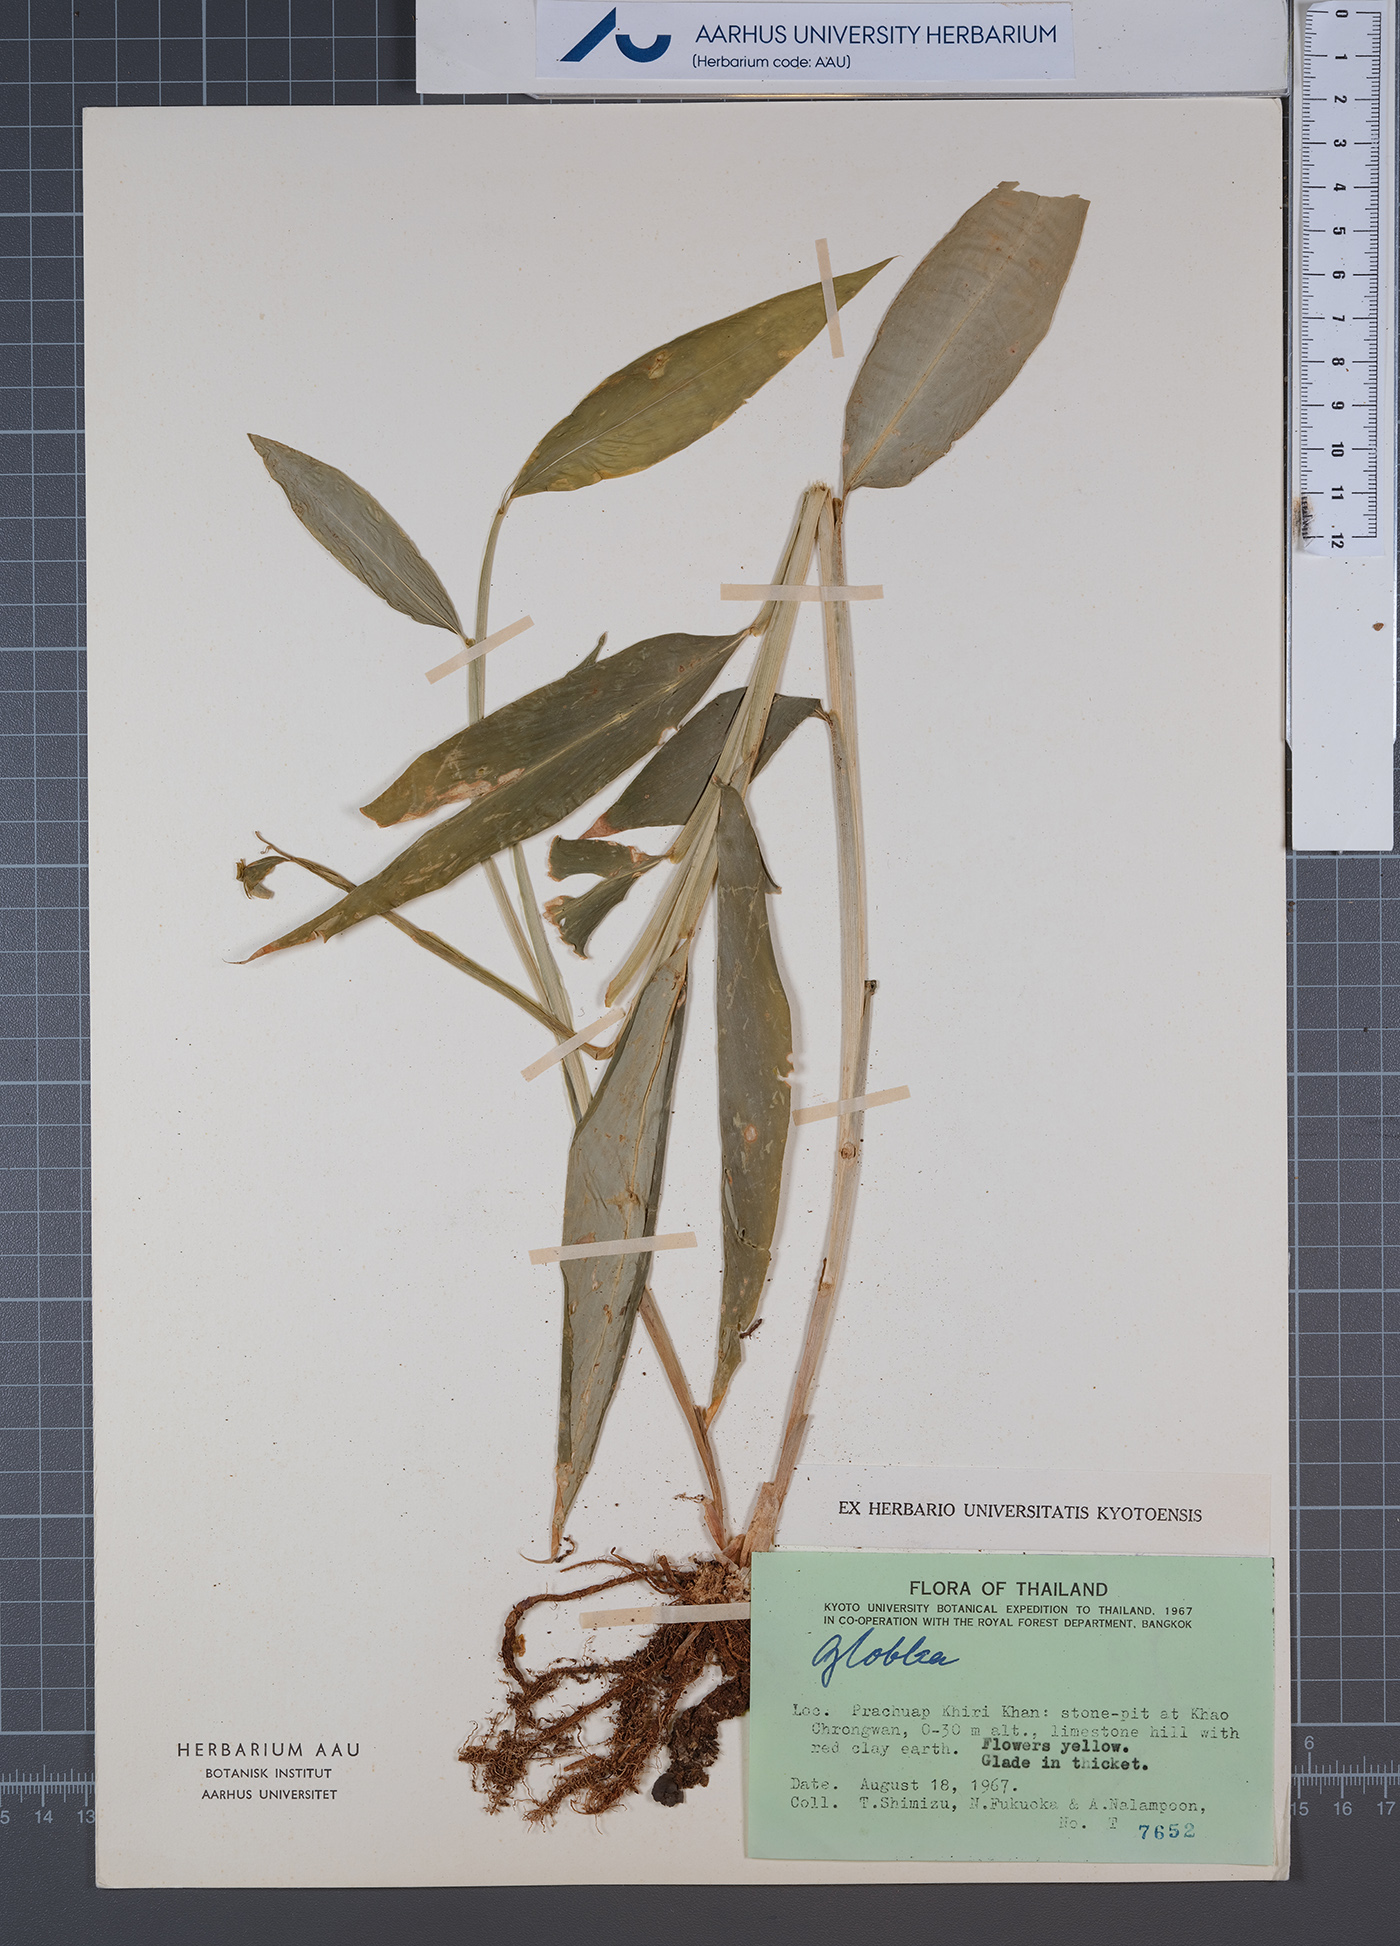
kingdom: Plantae
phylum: Tracheophyta
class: Liliopsida
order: Zingiberales
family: Zingiberaceae
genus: Globba
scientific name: Globba
